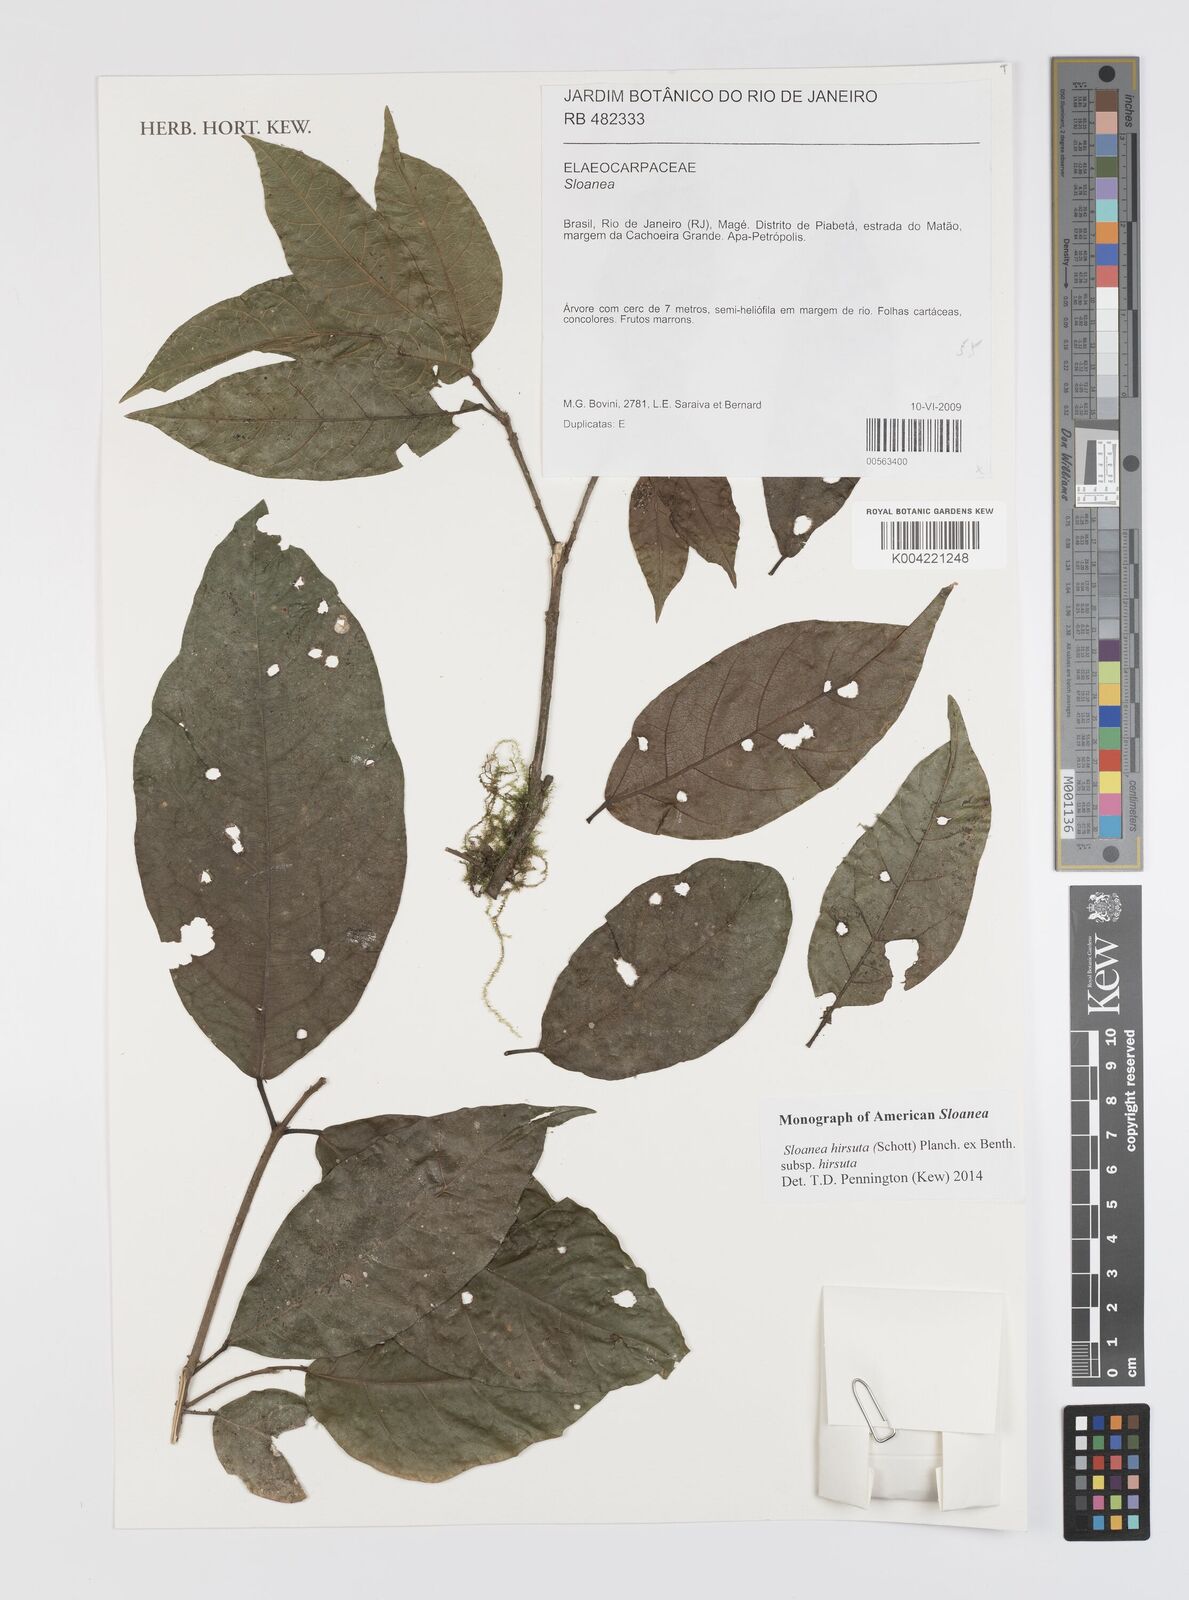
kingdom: Plantae
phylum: Tracheophyta
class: Magnoliopsida
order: Oxalidales
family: Elaeocarpaceae
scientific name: Elaeocarpaceae
